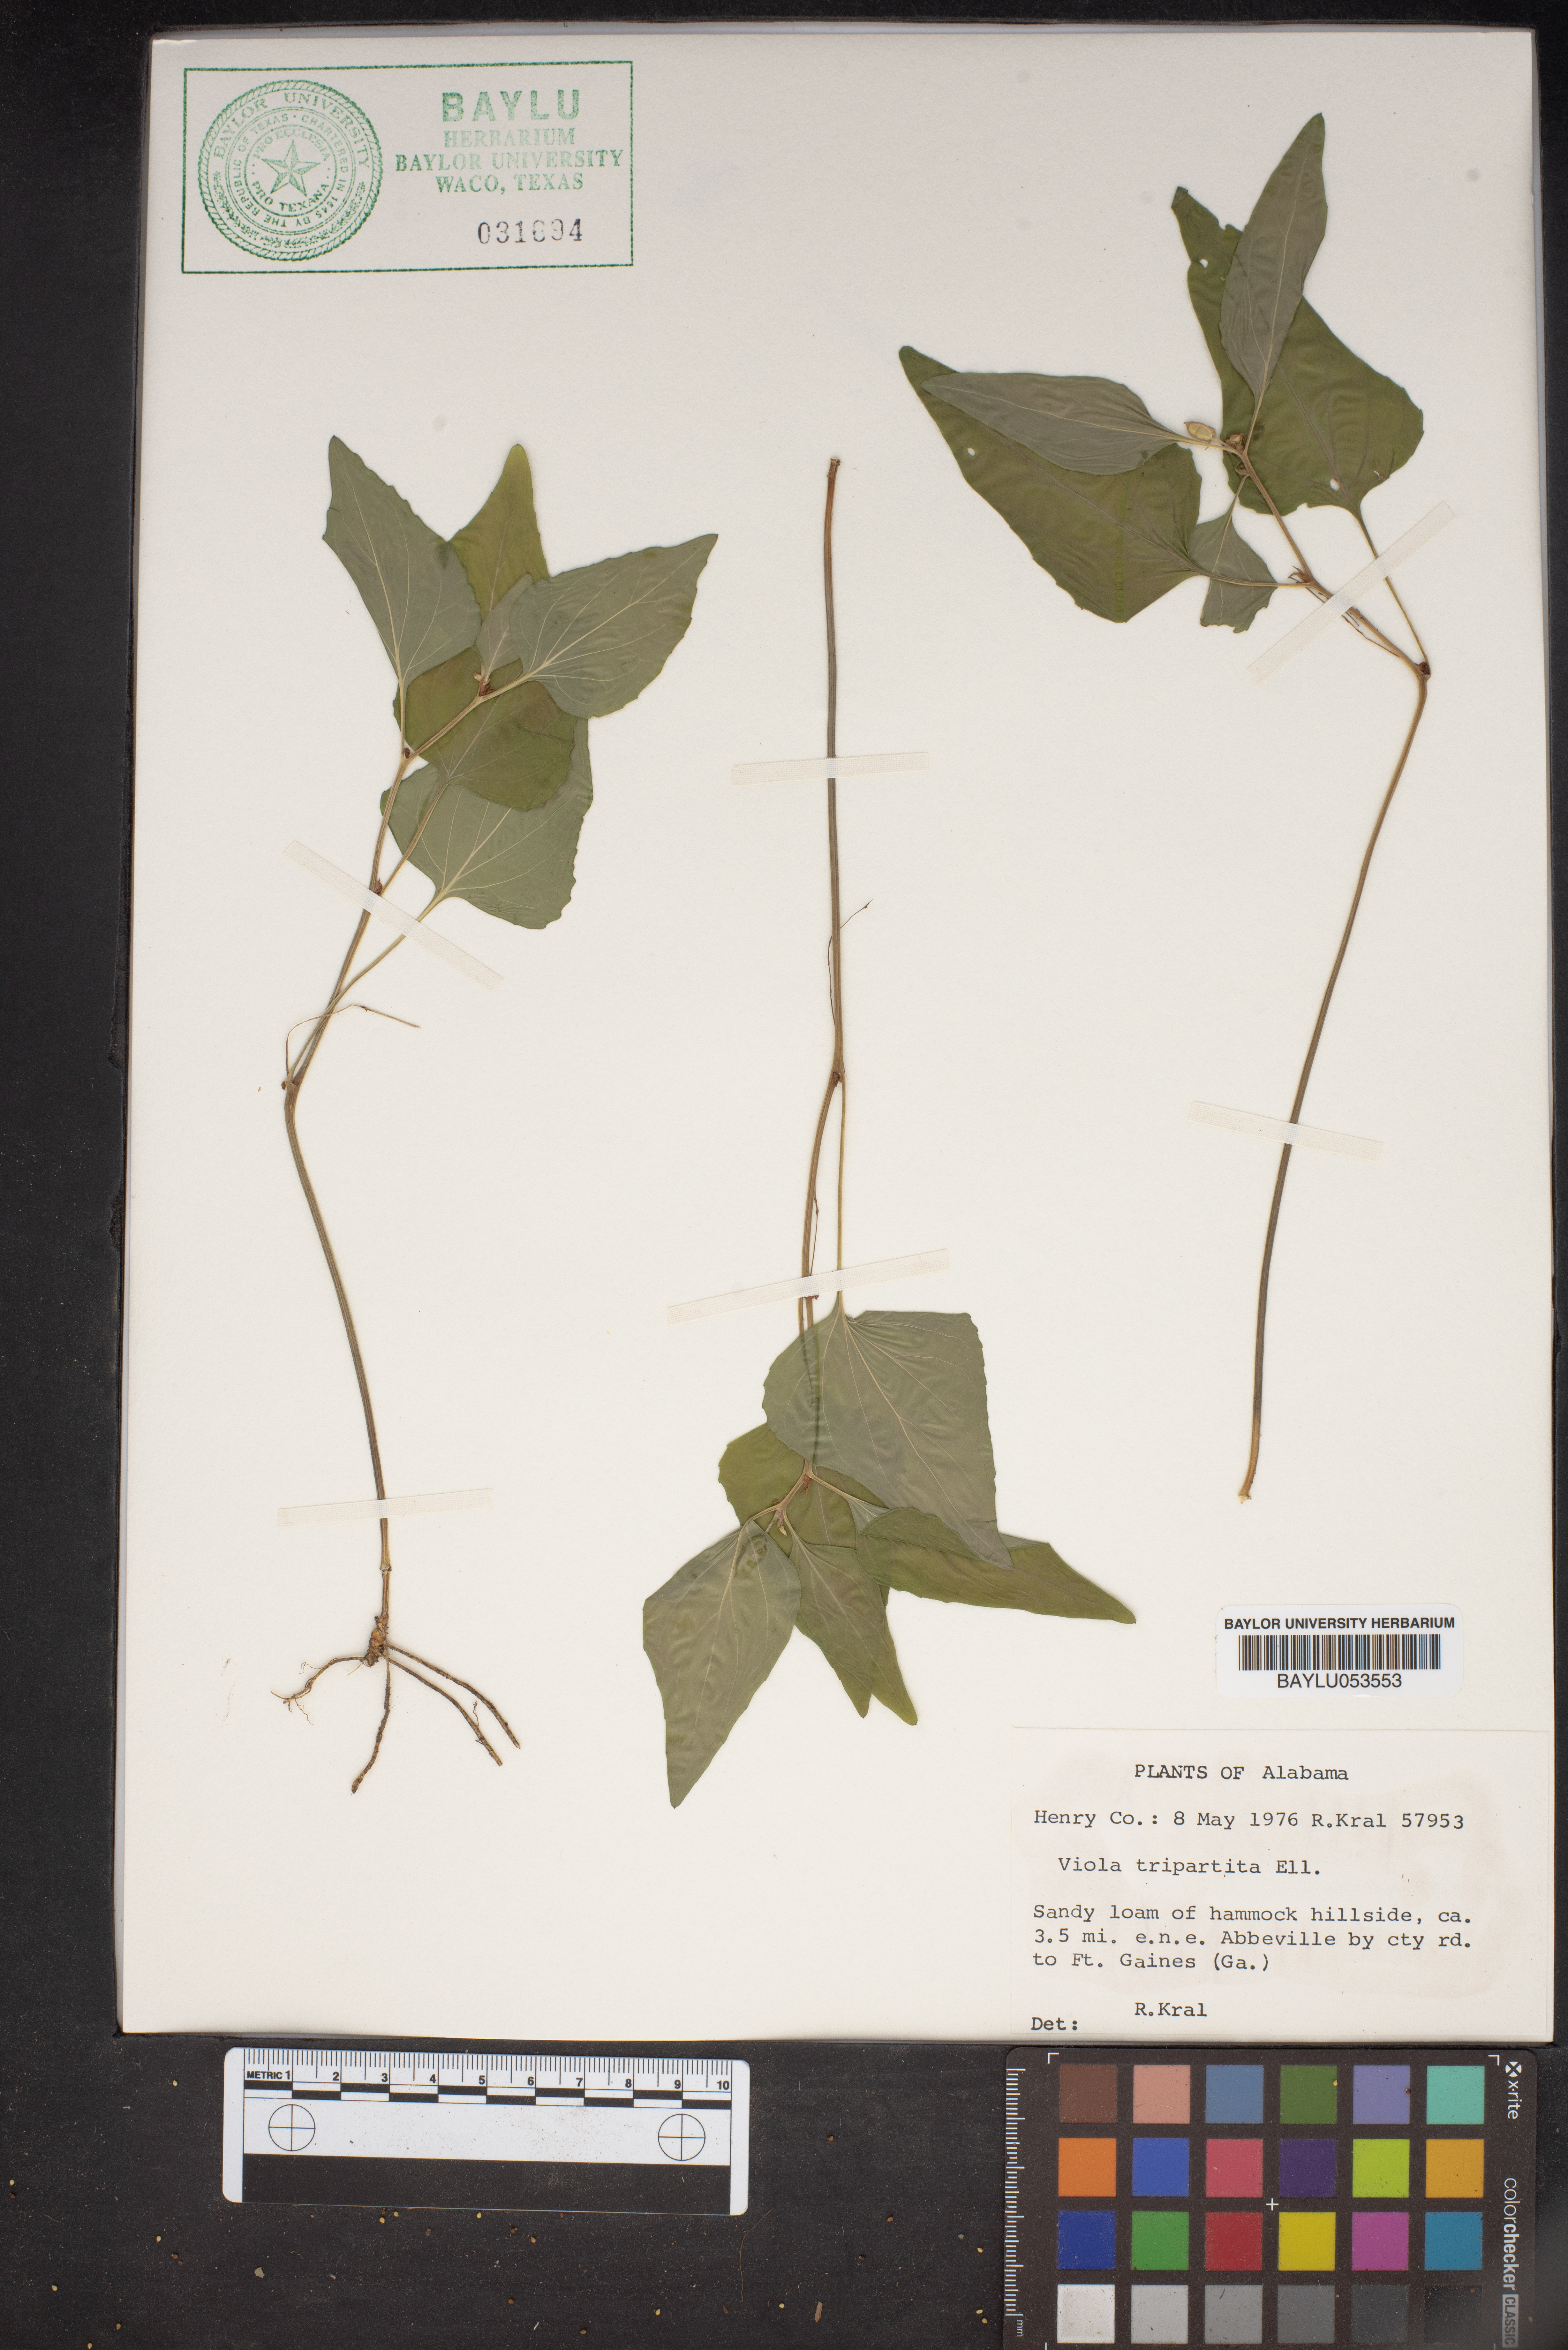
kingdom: Plantae
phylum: Tracheophyta
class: Magnoliopsida
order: Malpighiales
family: Violaceae
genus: Viola
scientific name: Viola tripartita
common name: Three-part violet
